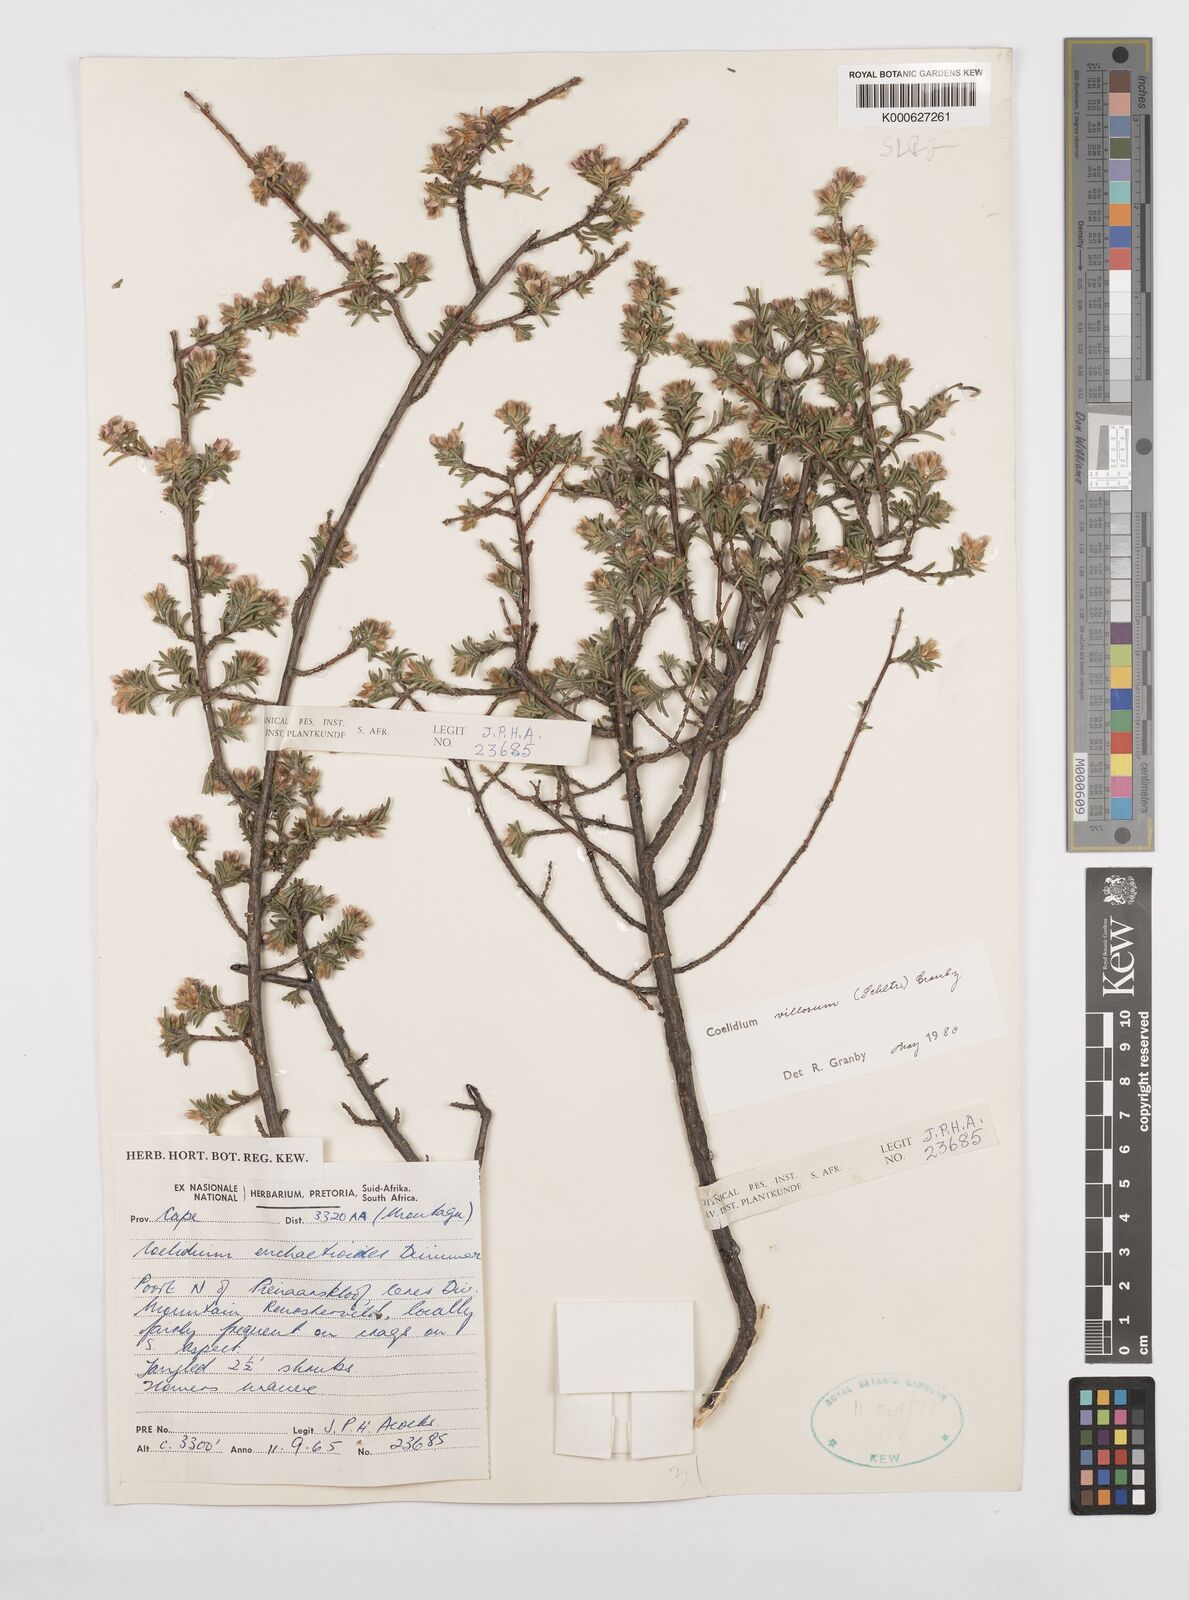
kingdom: Plantae
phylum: Tracheophyta
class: Magnoliopsida
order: Fabales
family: Fabaceae
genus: Amphithalea
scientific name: Amphithalea villosa
